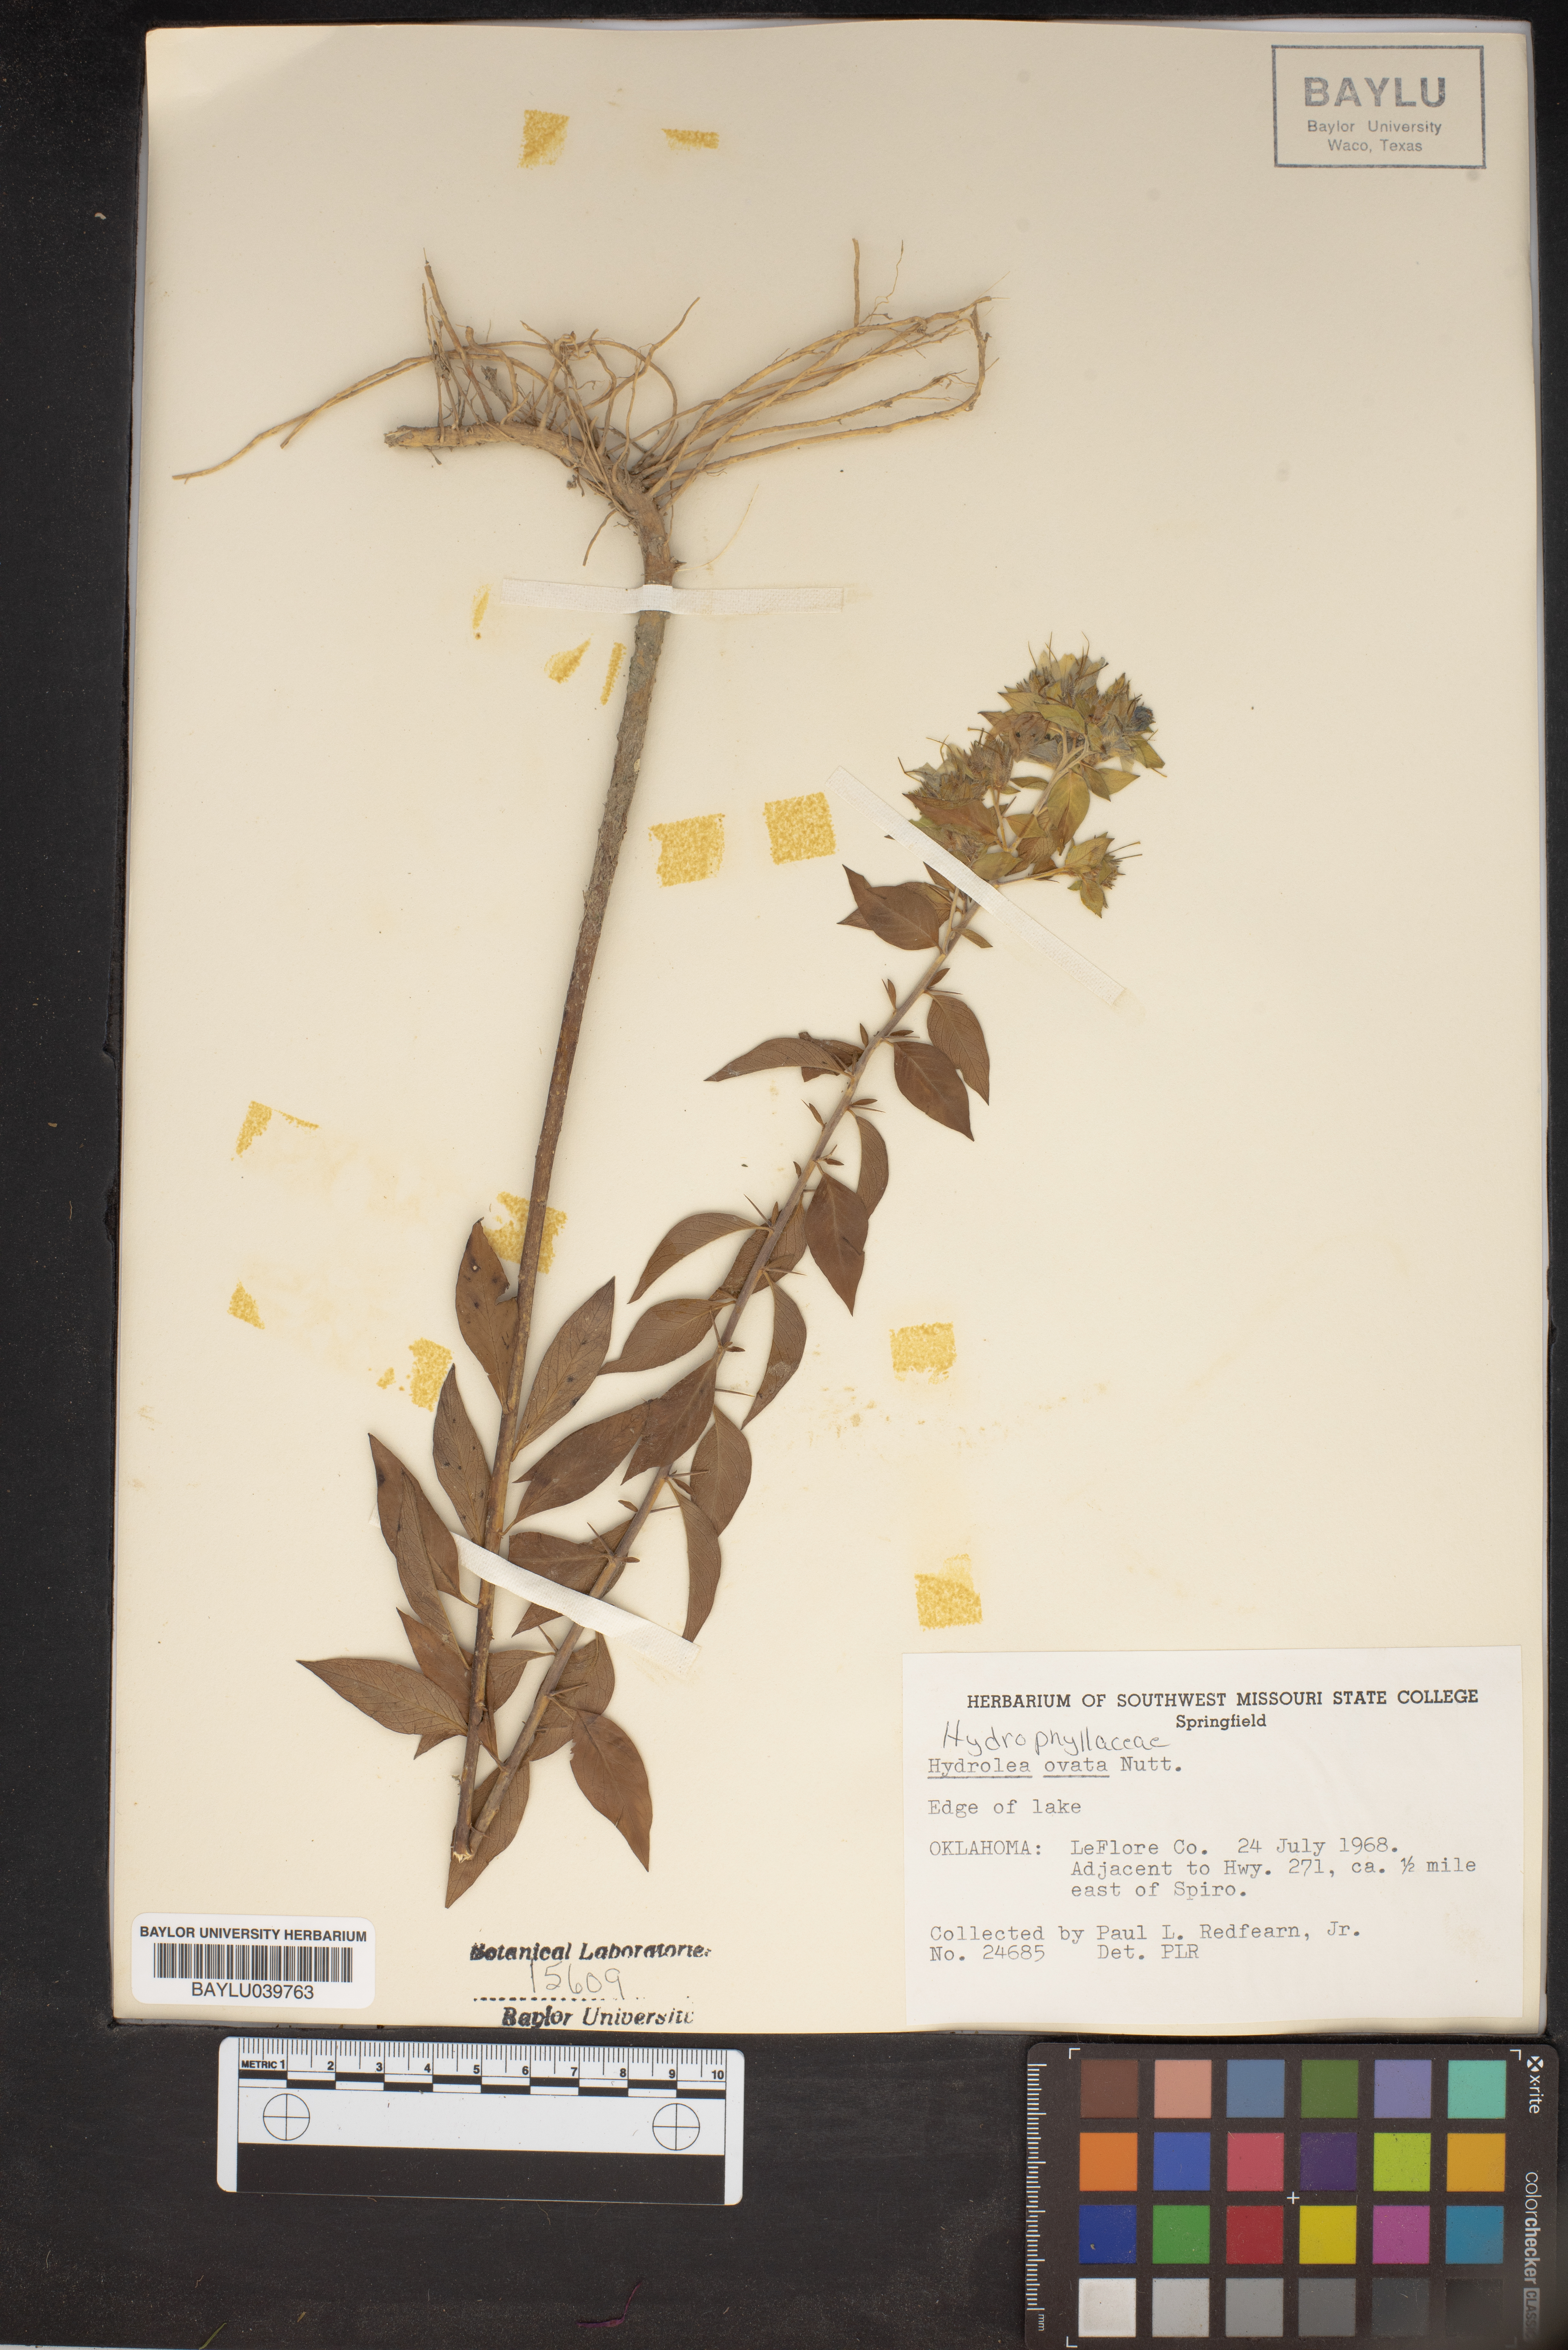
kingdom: Plantae
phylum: Tracheophyta
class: Magnoliopsida
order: Solanales
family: Hydroleaceae
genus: Hydrolea
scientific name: Hydrolea ovata
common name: Ovate false fiddleleaf
